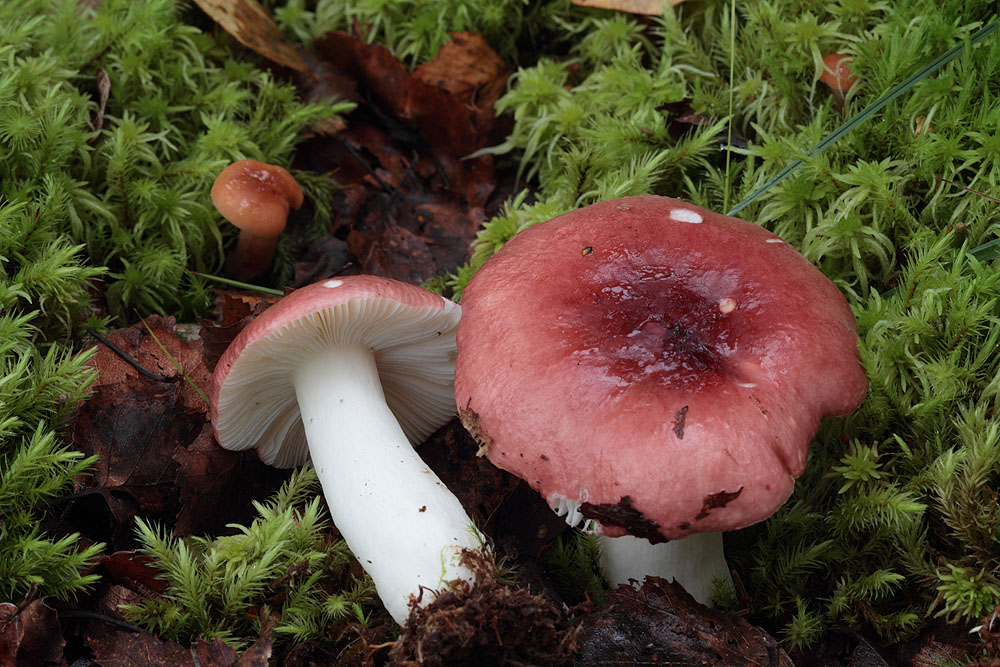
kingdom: Fungi
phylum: Basidiomycota
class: Agaricomycetes
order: Russulales
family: Russulaceae
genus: Russula
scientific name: Russula aquosa
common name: vand-skørhat
